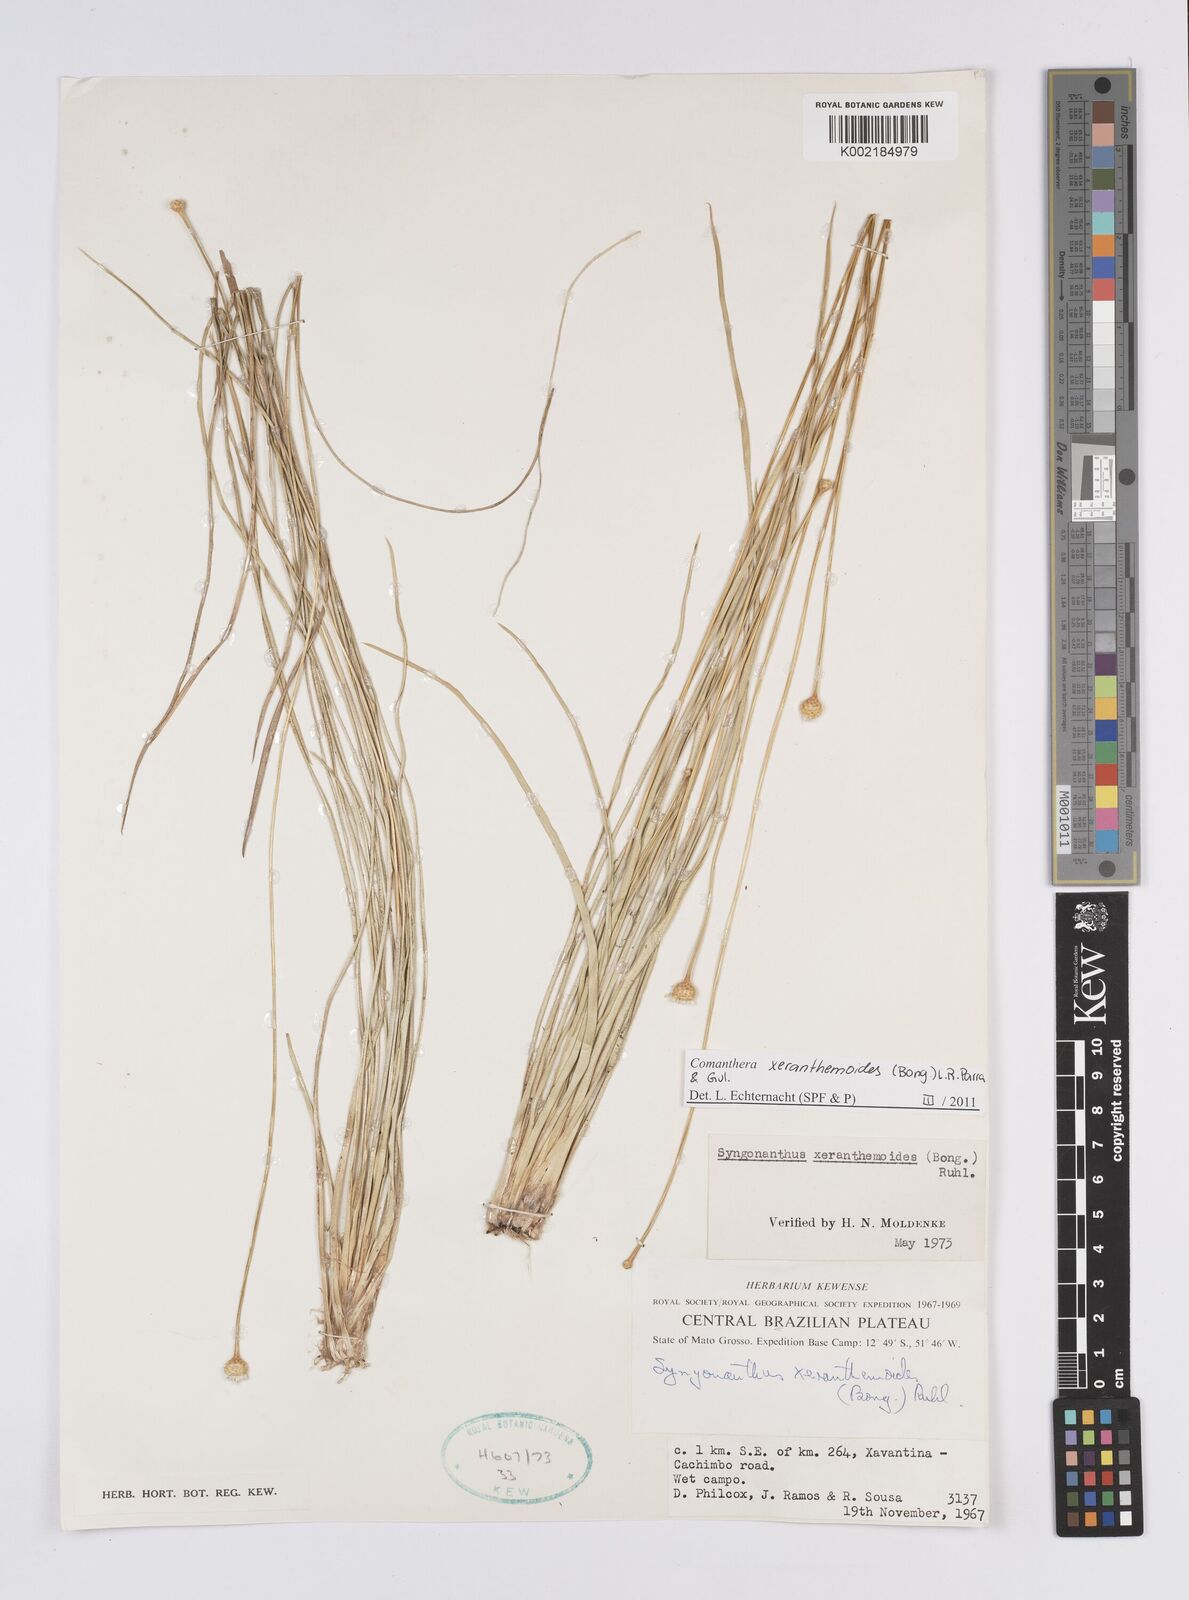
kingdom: Plantae
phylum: Tracheophyta
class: Liliopsida
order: Poales
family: Eriocaulaceae
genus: Comanthera
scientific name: Comanthera xeranthemoides
